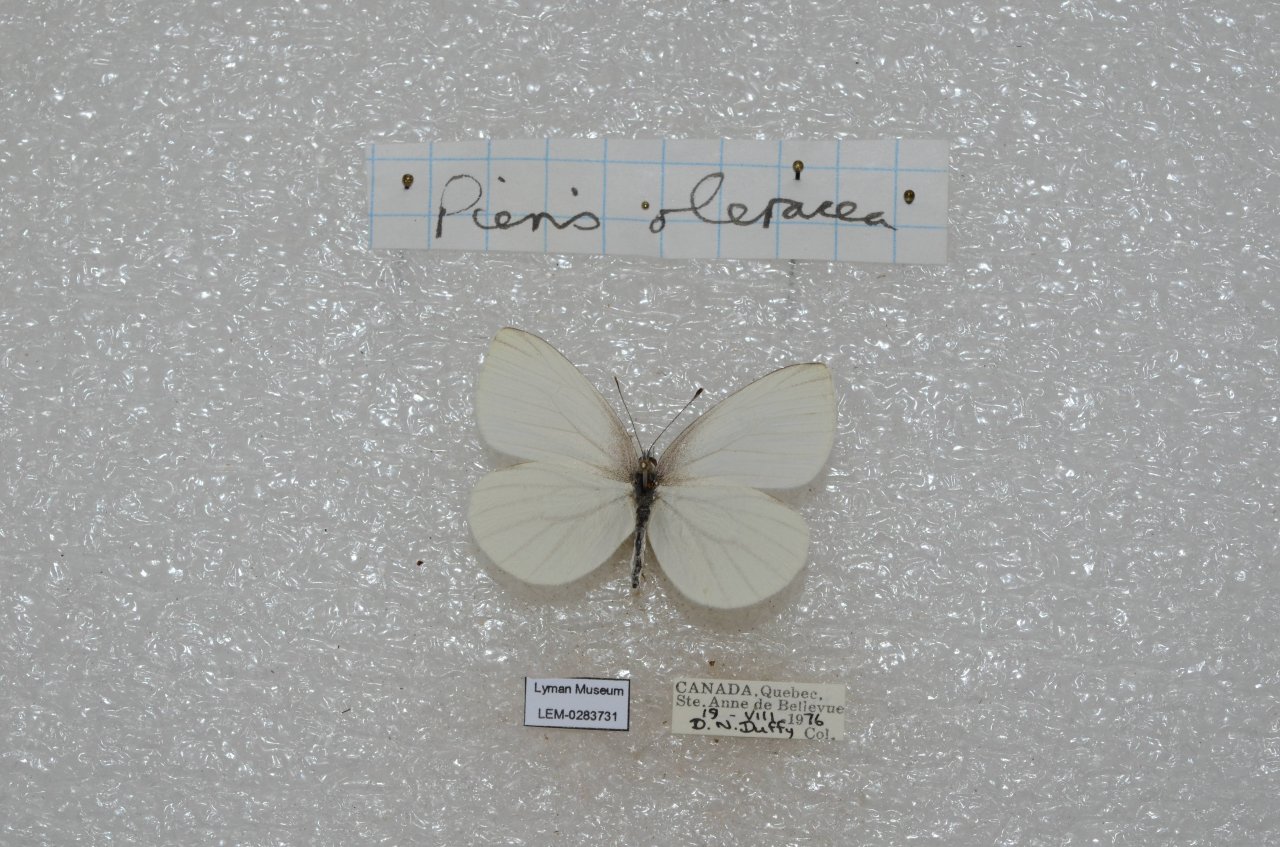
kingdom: Animalia
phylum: Arthropoda
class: Insecta
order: Lepidoptera
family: Pieridae
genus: Pieris
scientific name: Pieris oleracea
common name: Mustard White
